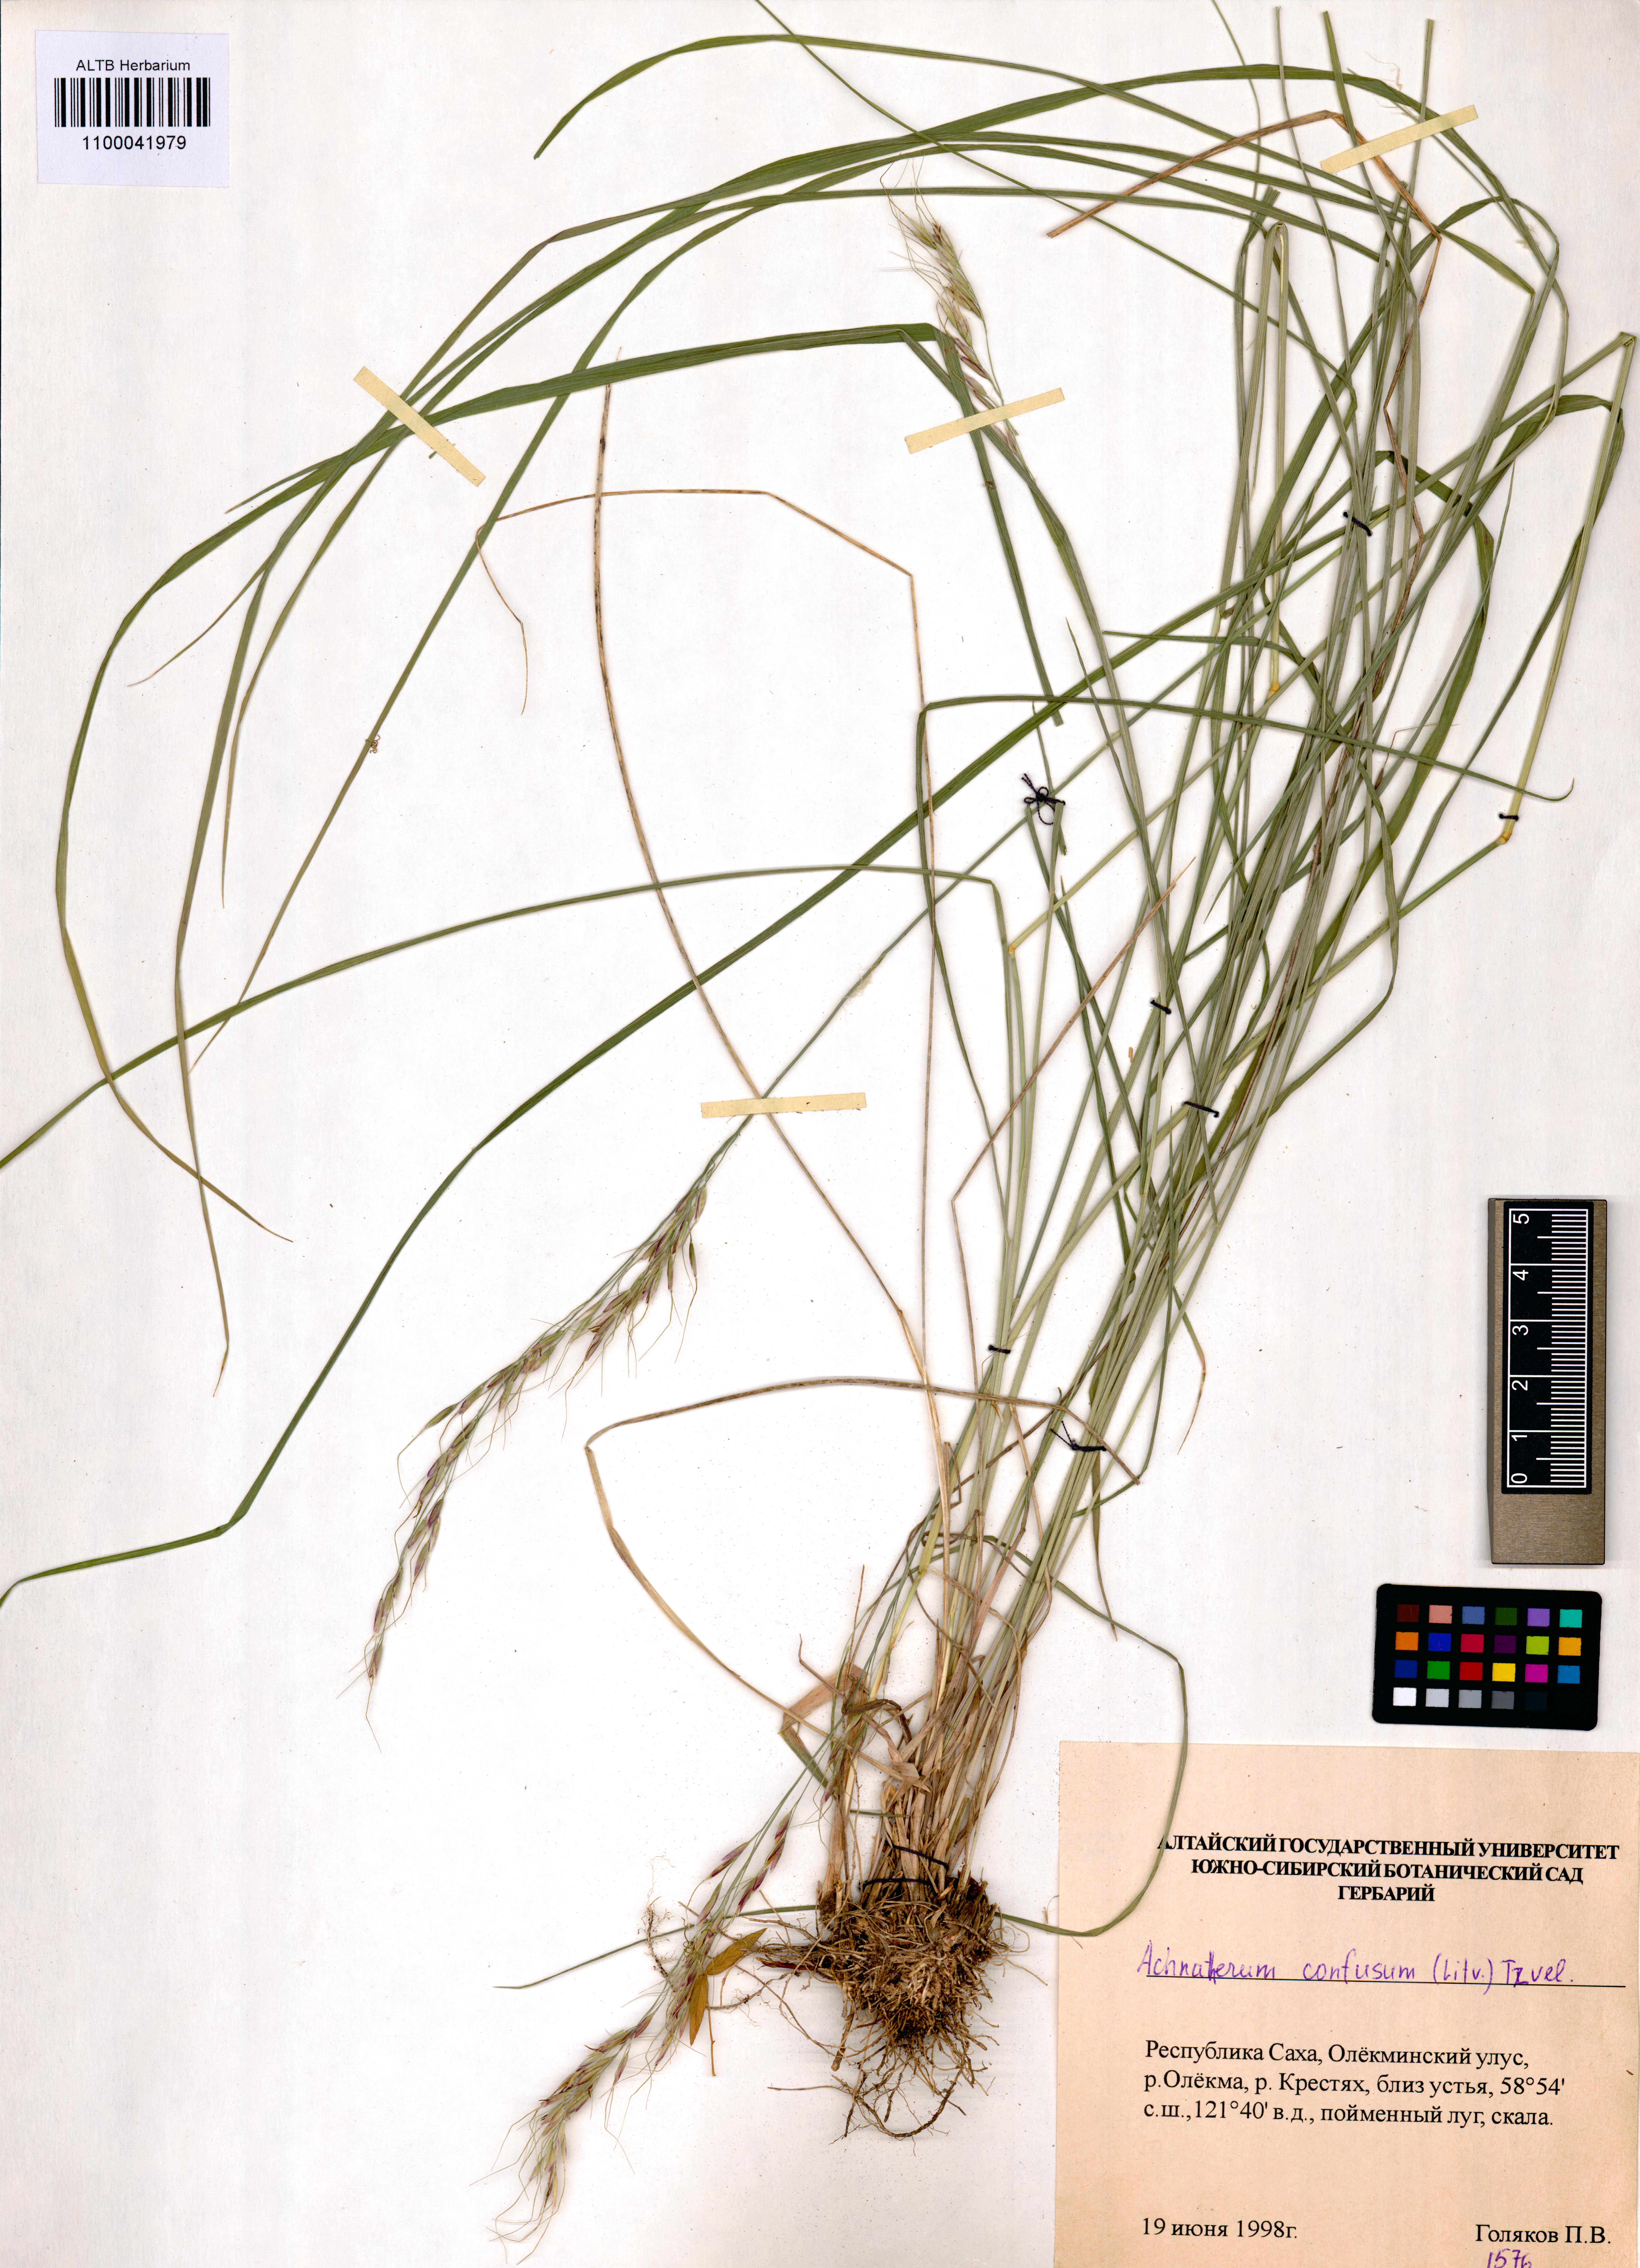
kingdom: Plantae
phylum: Tracheophyta
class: Liliopsida
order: Poales
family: Poaceae
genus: Achnatherum
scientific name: Achnatherum confusum
